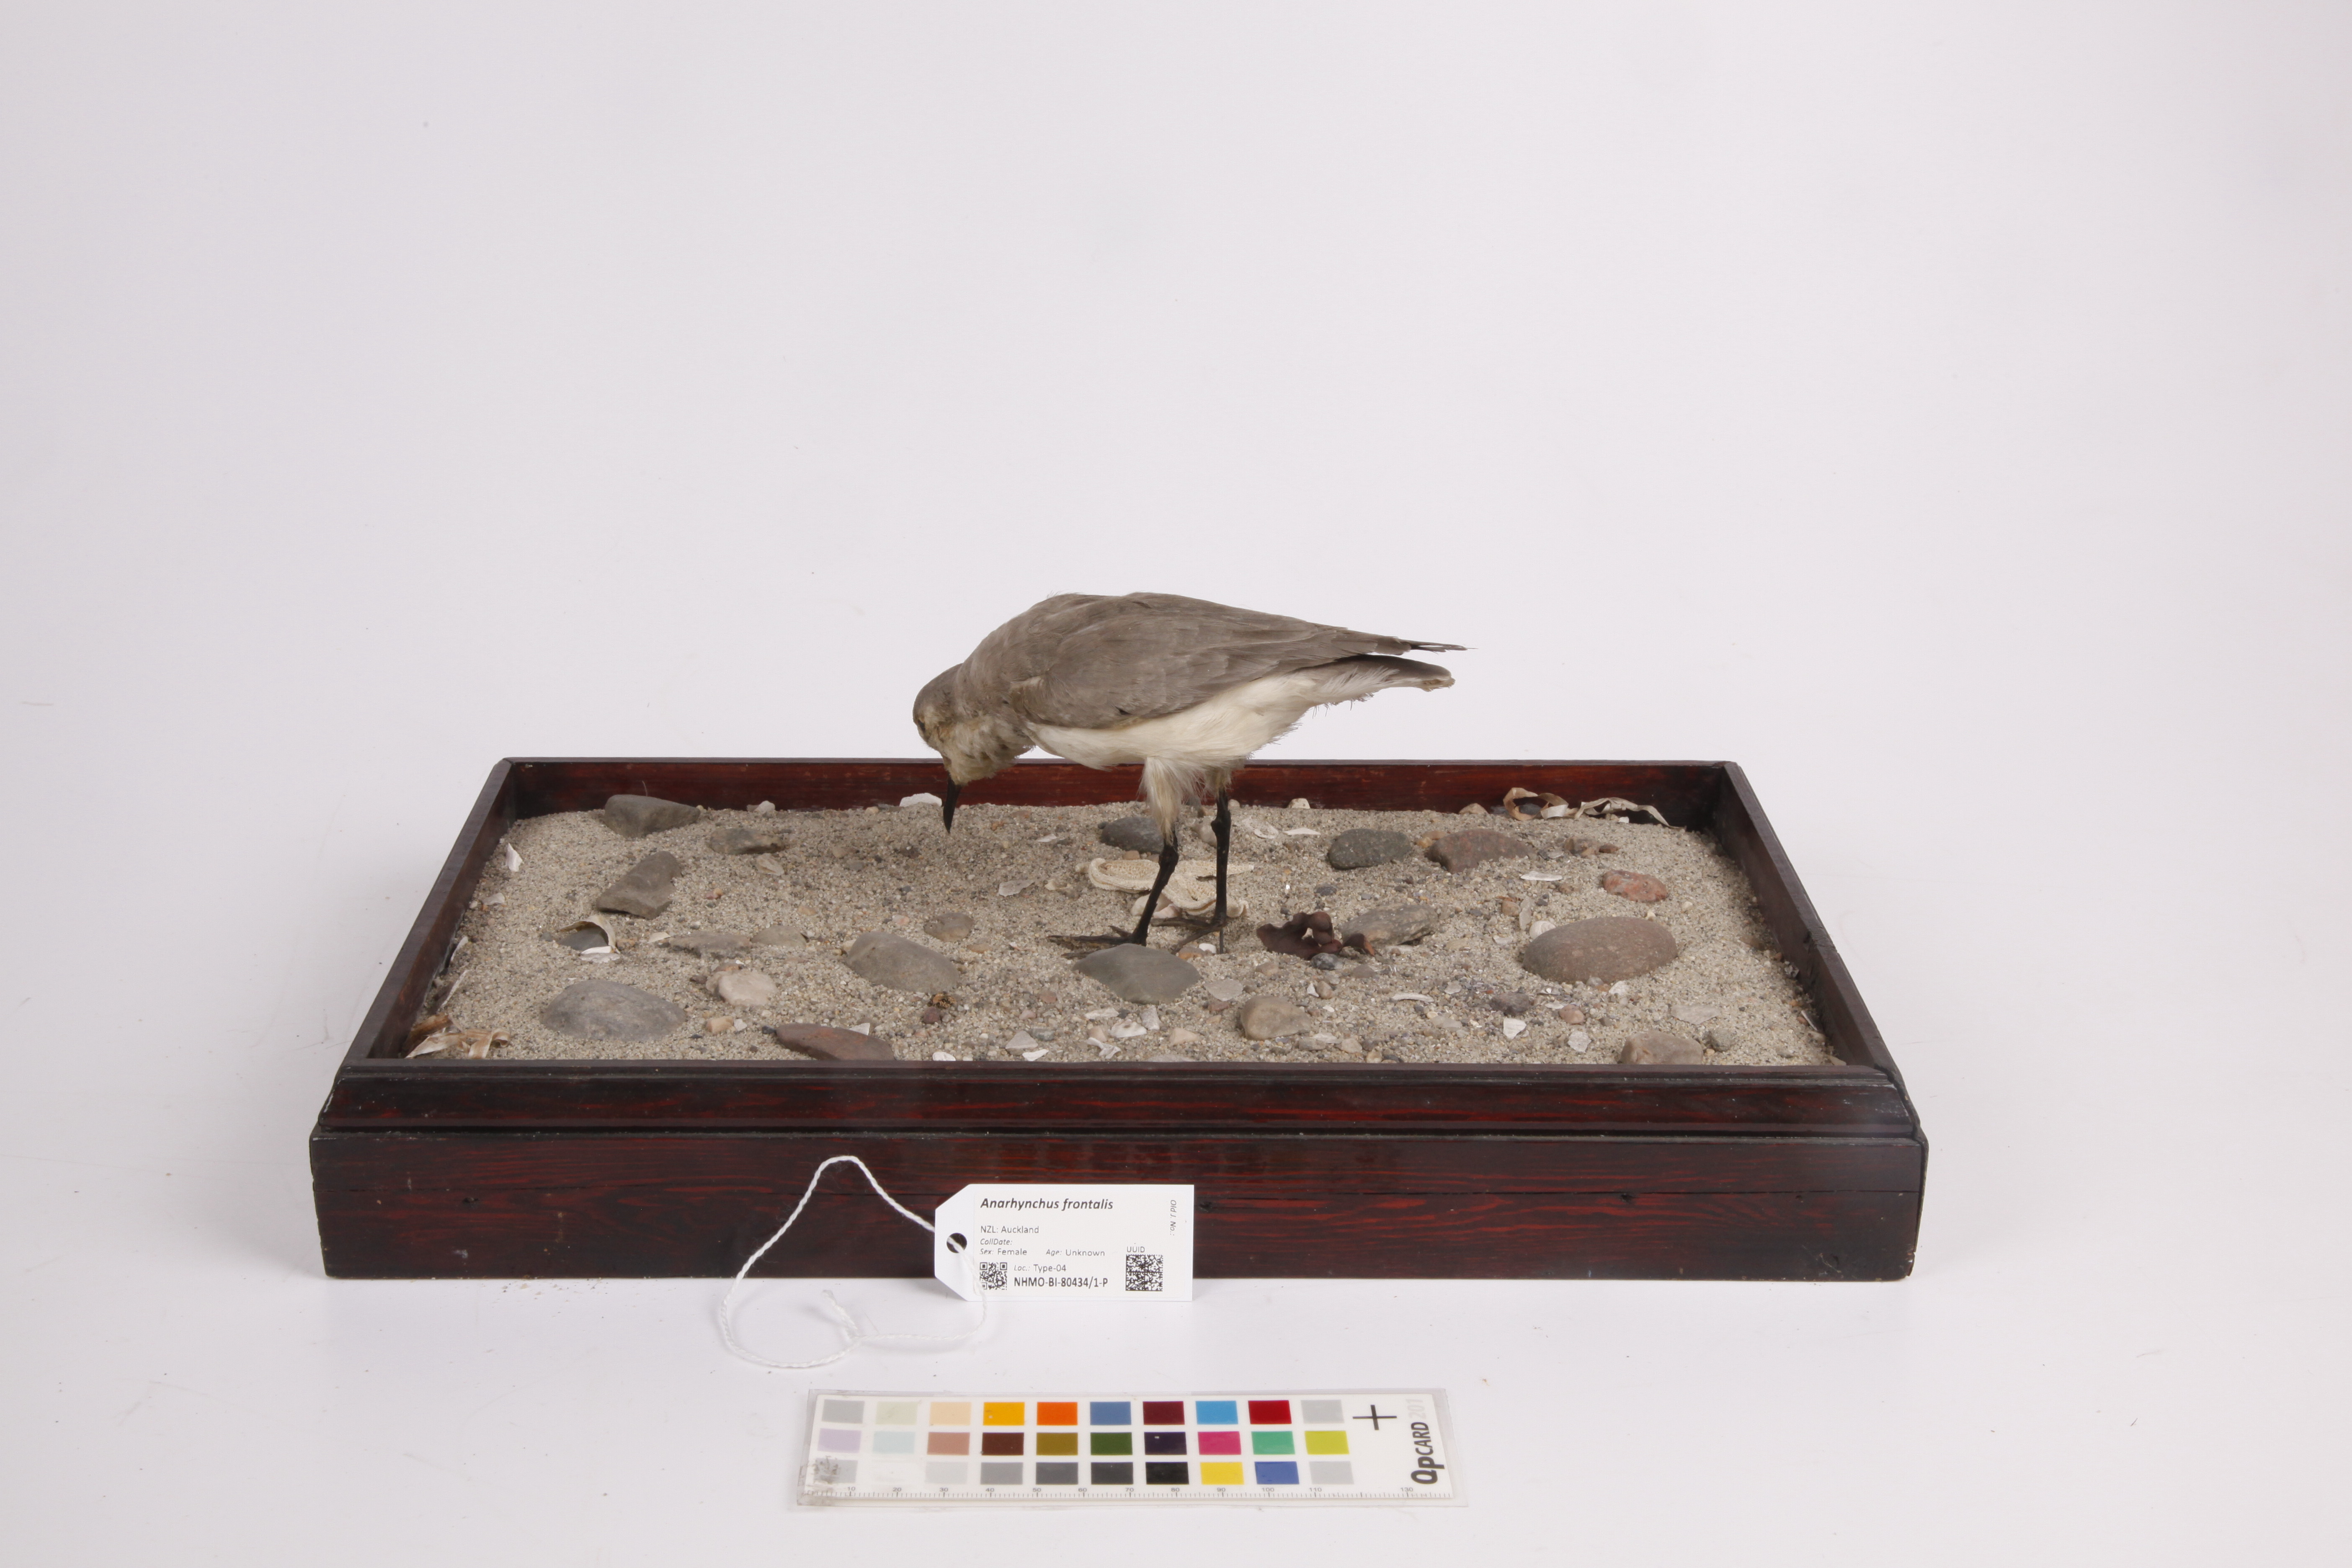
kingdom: Animalia
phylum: Chordata
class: Aves
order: Charadriiformes
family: Charadriidae
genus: Anarhynchus
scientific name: Anarhynchus frontalis
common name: Wrybill
